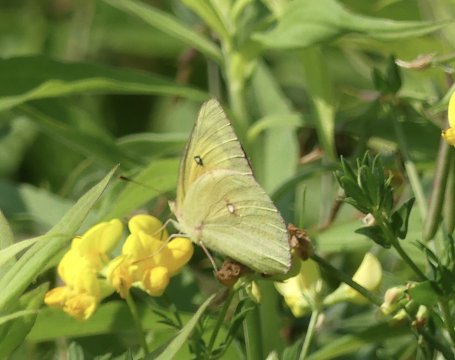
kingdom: Animalia
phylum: Arthropoda
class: Insecta
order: Lepidoptera
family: Pieridae
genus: Colias
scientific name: Colias eurytheme
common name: Orange Sulphur
